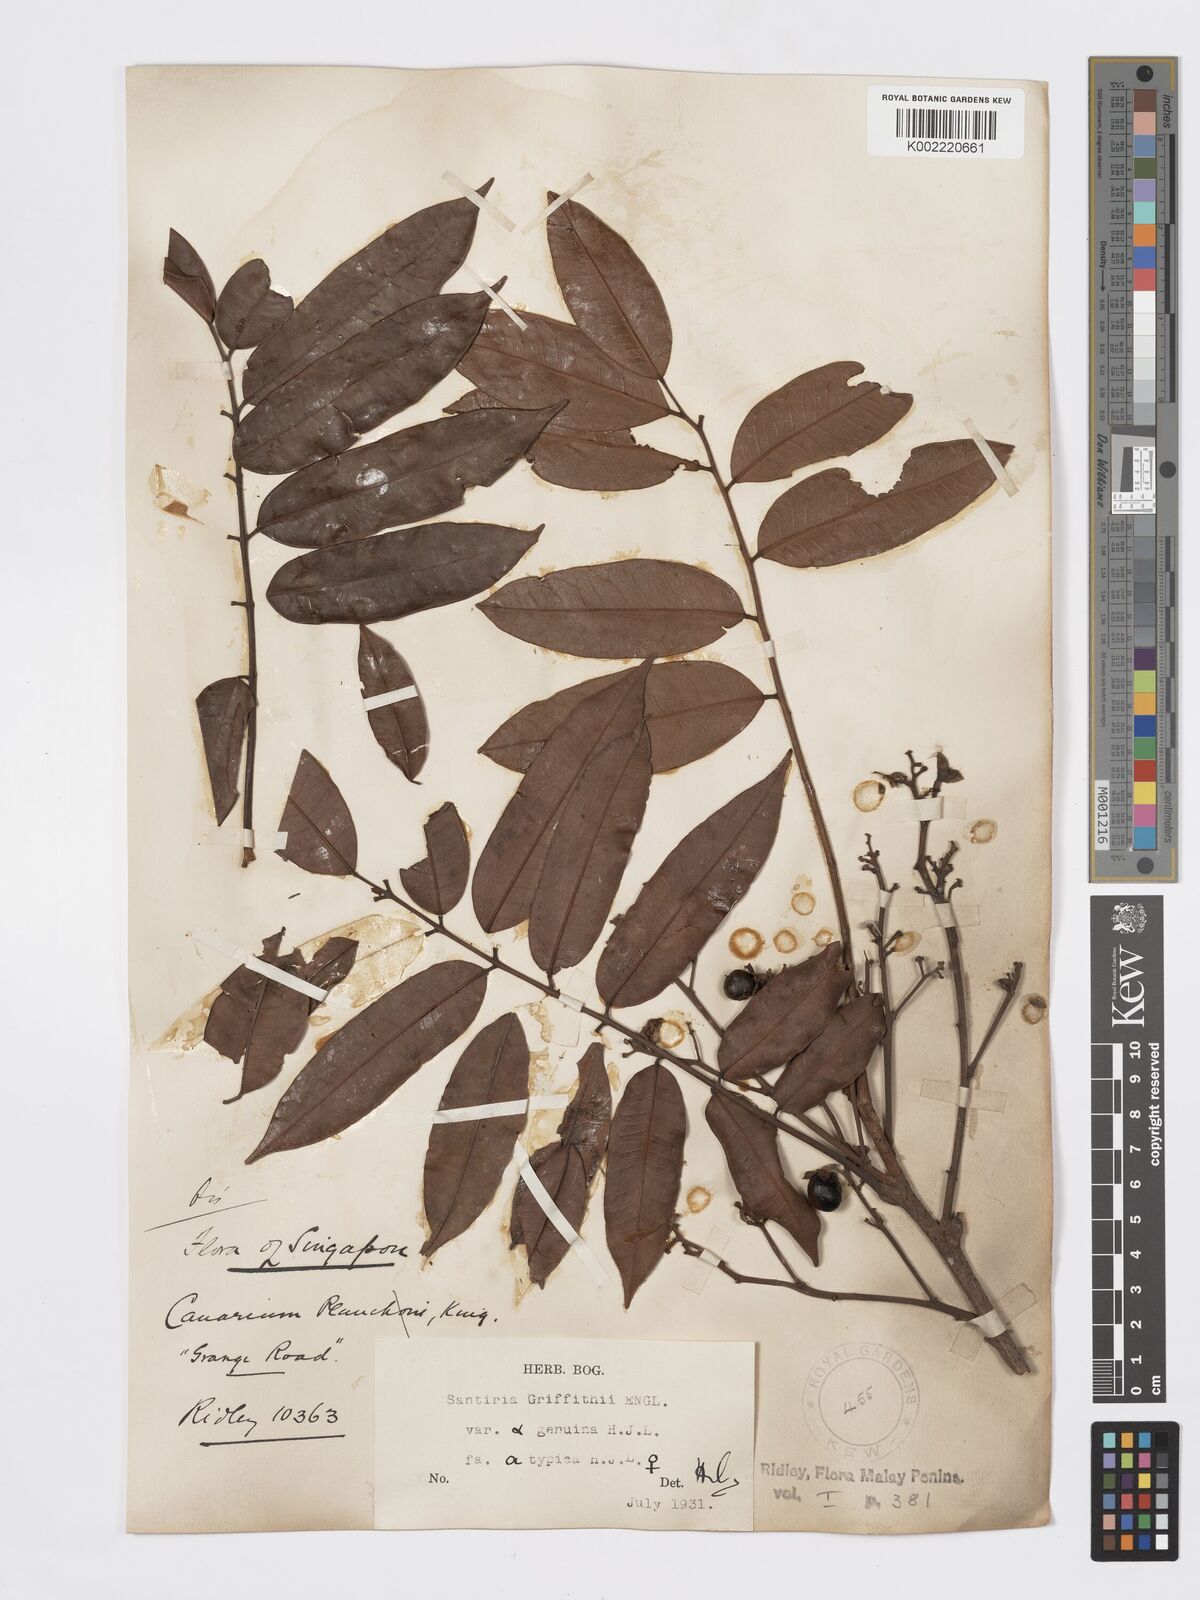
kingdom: Plantae
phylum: Tracheophyta
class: Magnoliopsida
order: Sapindales
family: Burseraceae
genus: Santiria
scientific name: Santiria griffithii
